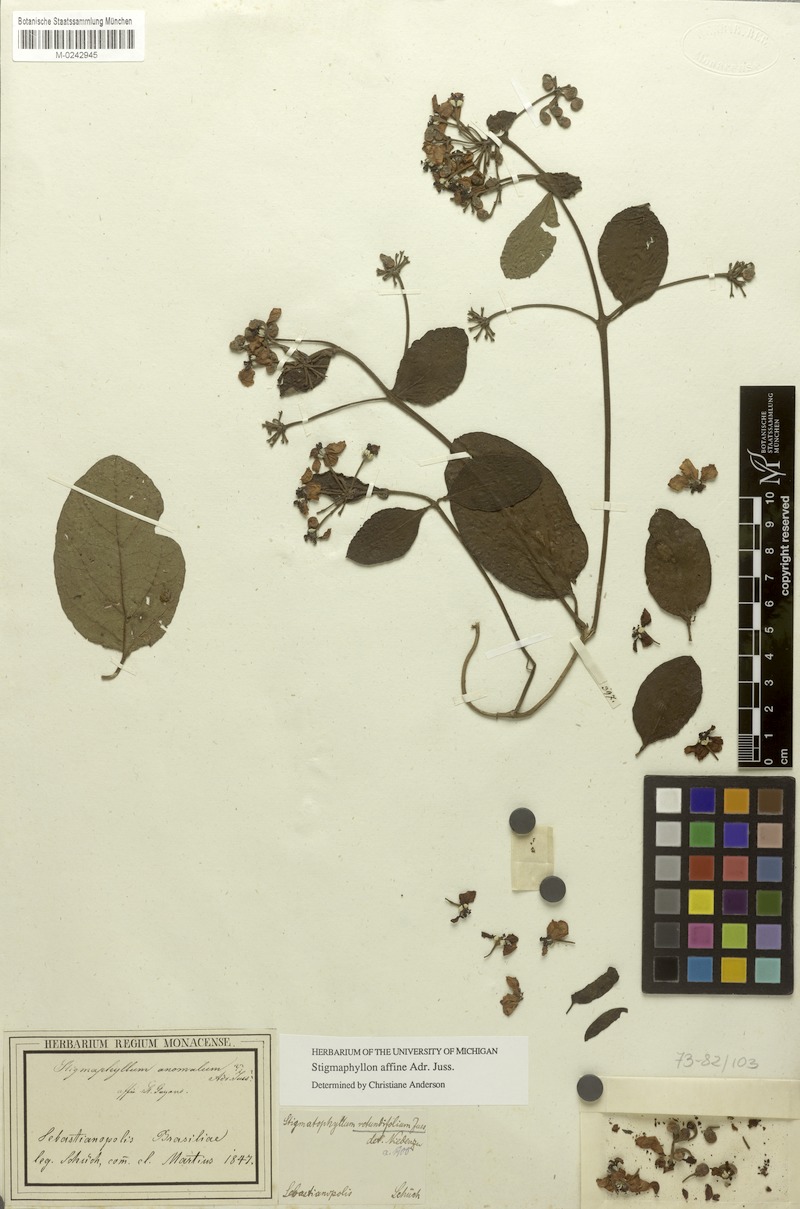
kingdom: Plantae
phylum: Tracheophyta
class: Magnoliopsida
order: Malpighiales
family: Malpighiaceae
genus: Stigmaphyllon
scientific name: Stigmaphyllon affine
